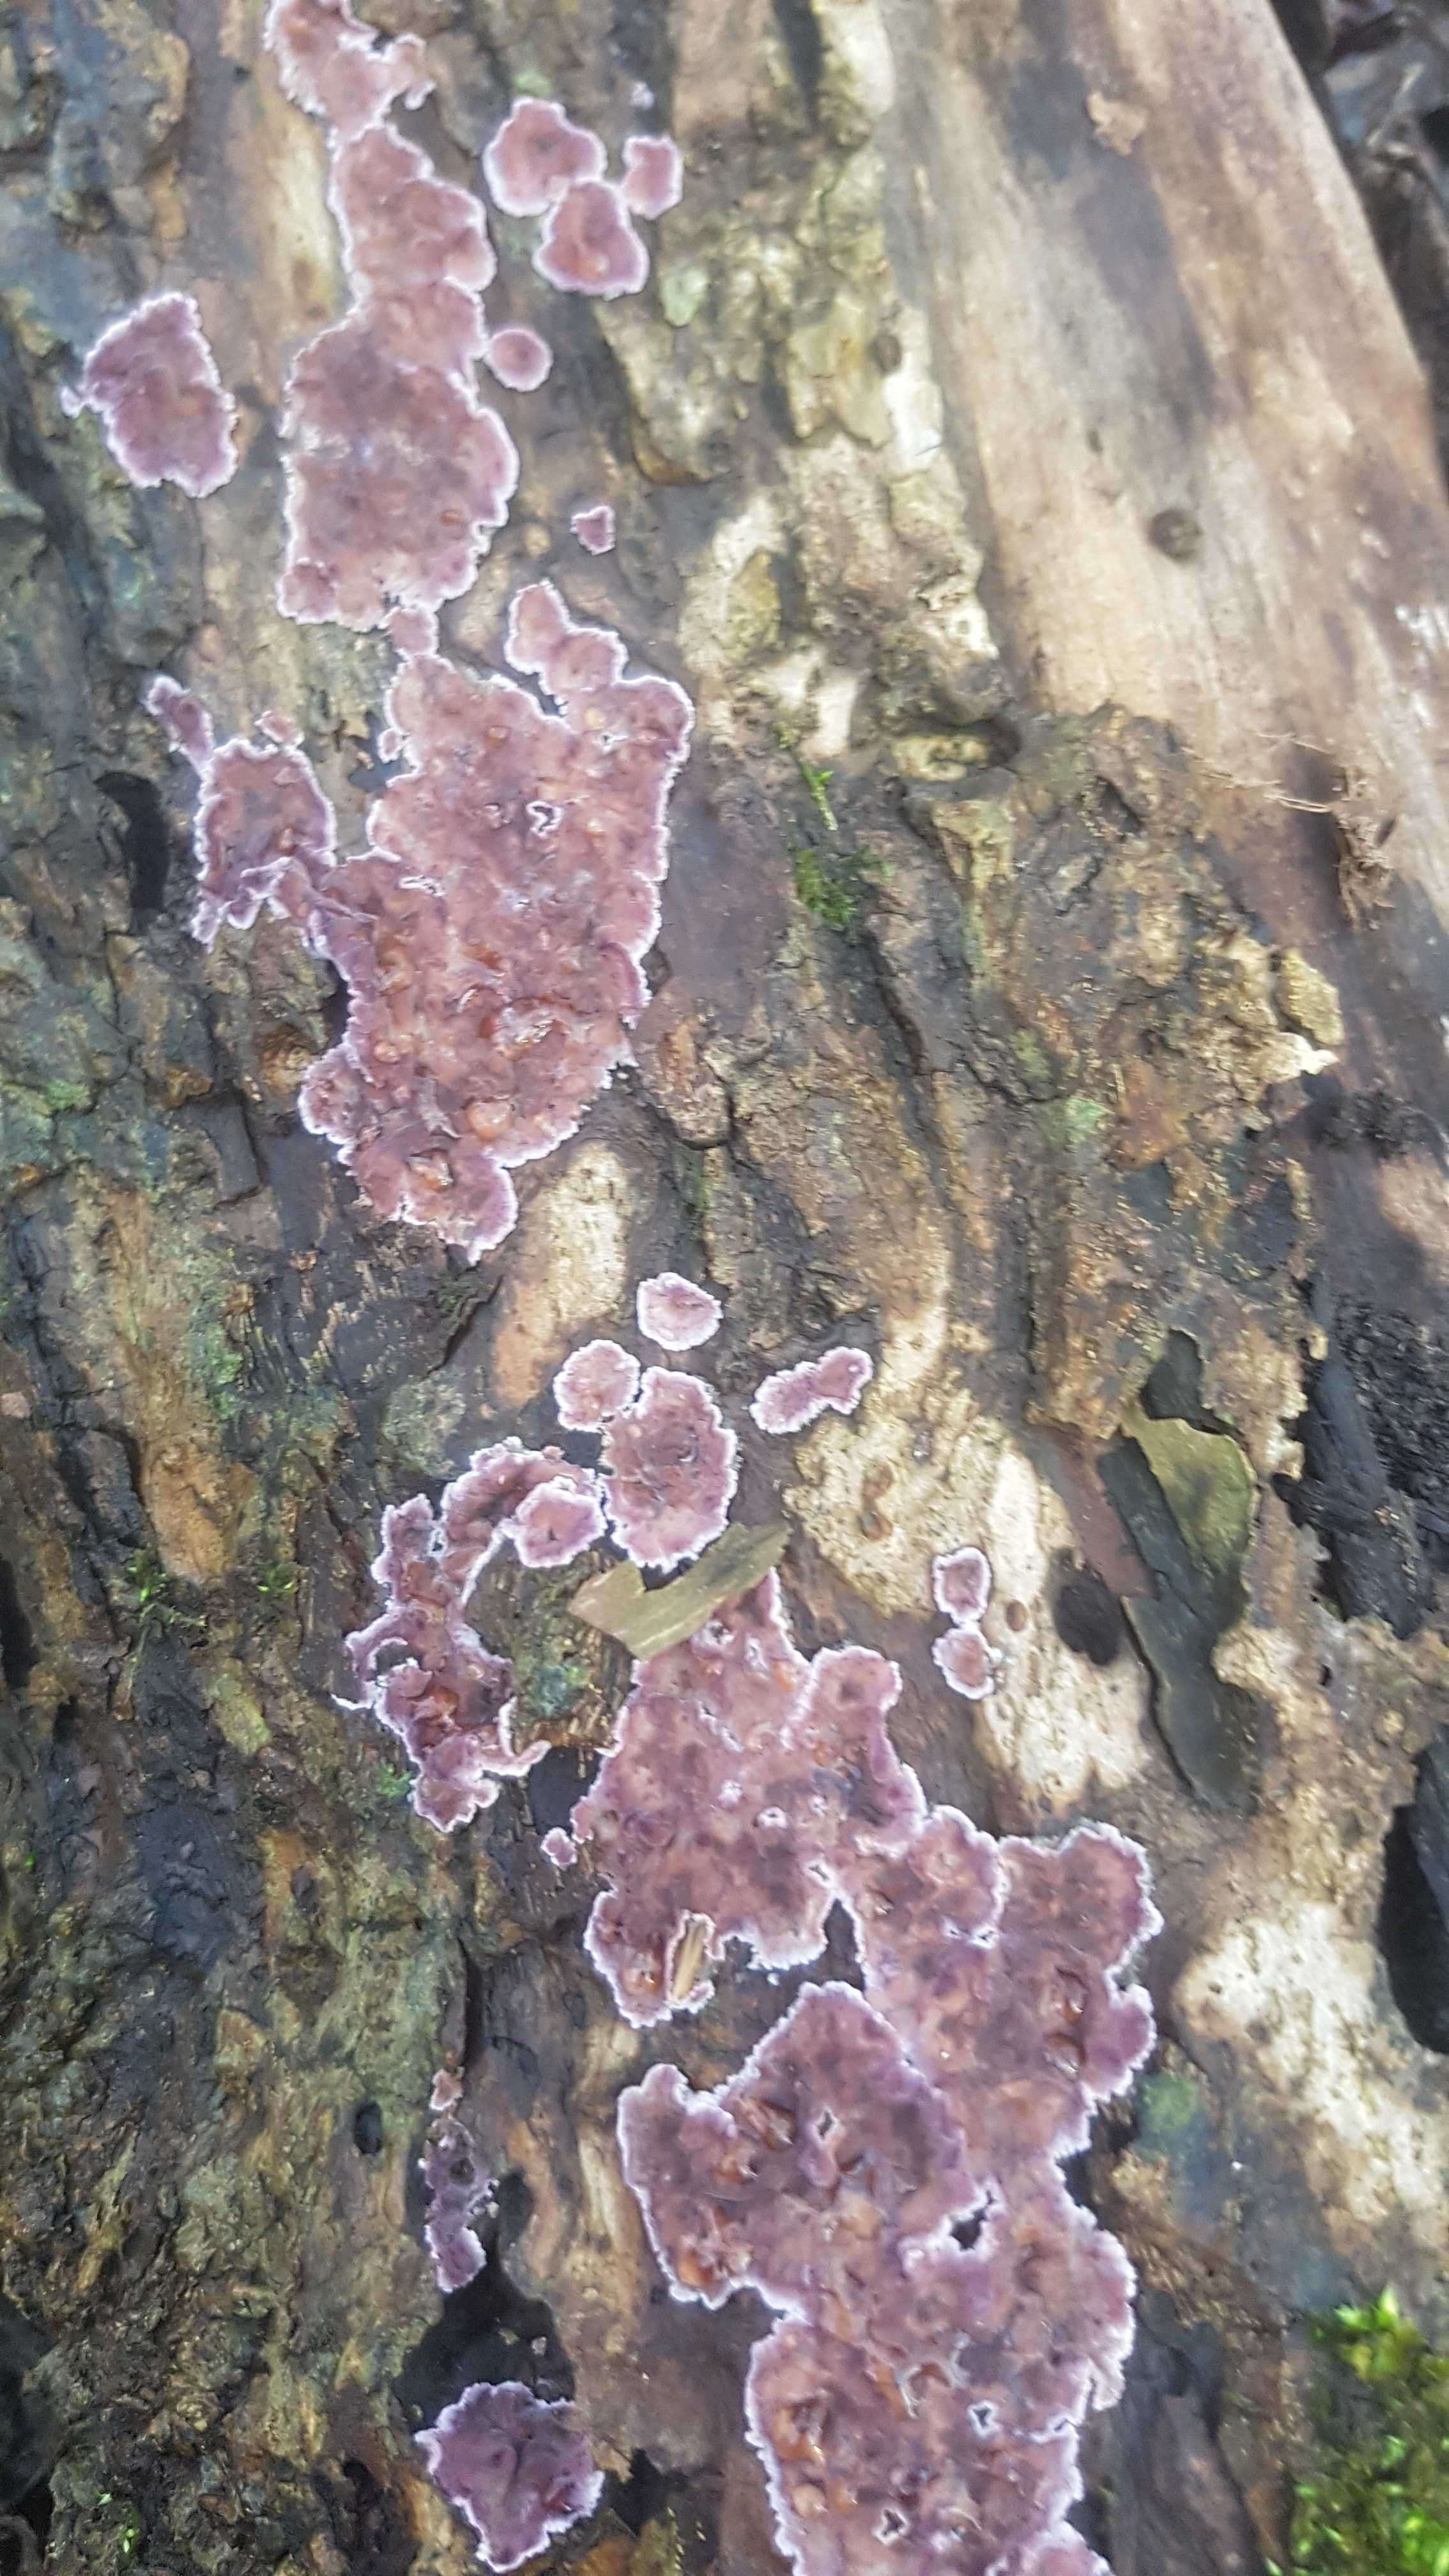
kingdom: Fungi
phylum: Basidiomycota
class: Agaricomycetes
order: Agaricales
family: Cyphellaceae
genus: Chondrostereum
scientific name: Chondrostereum purpureum
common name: purpurlædersvamp
